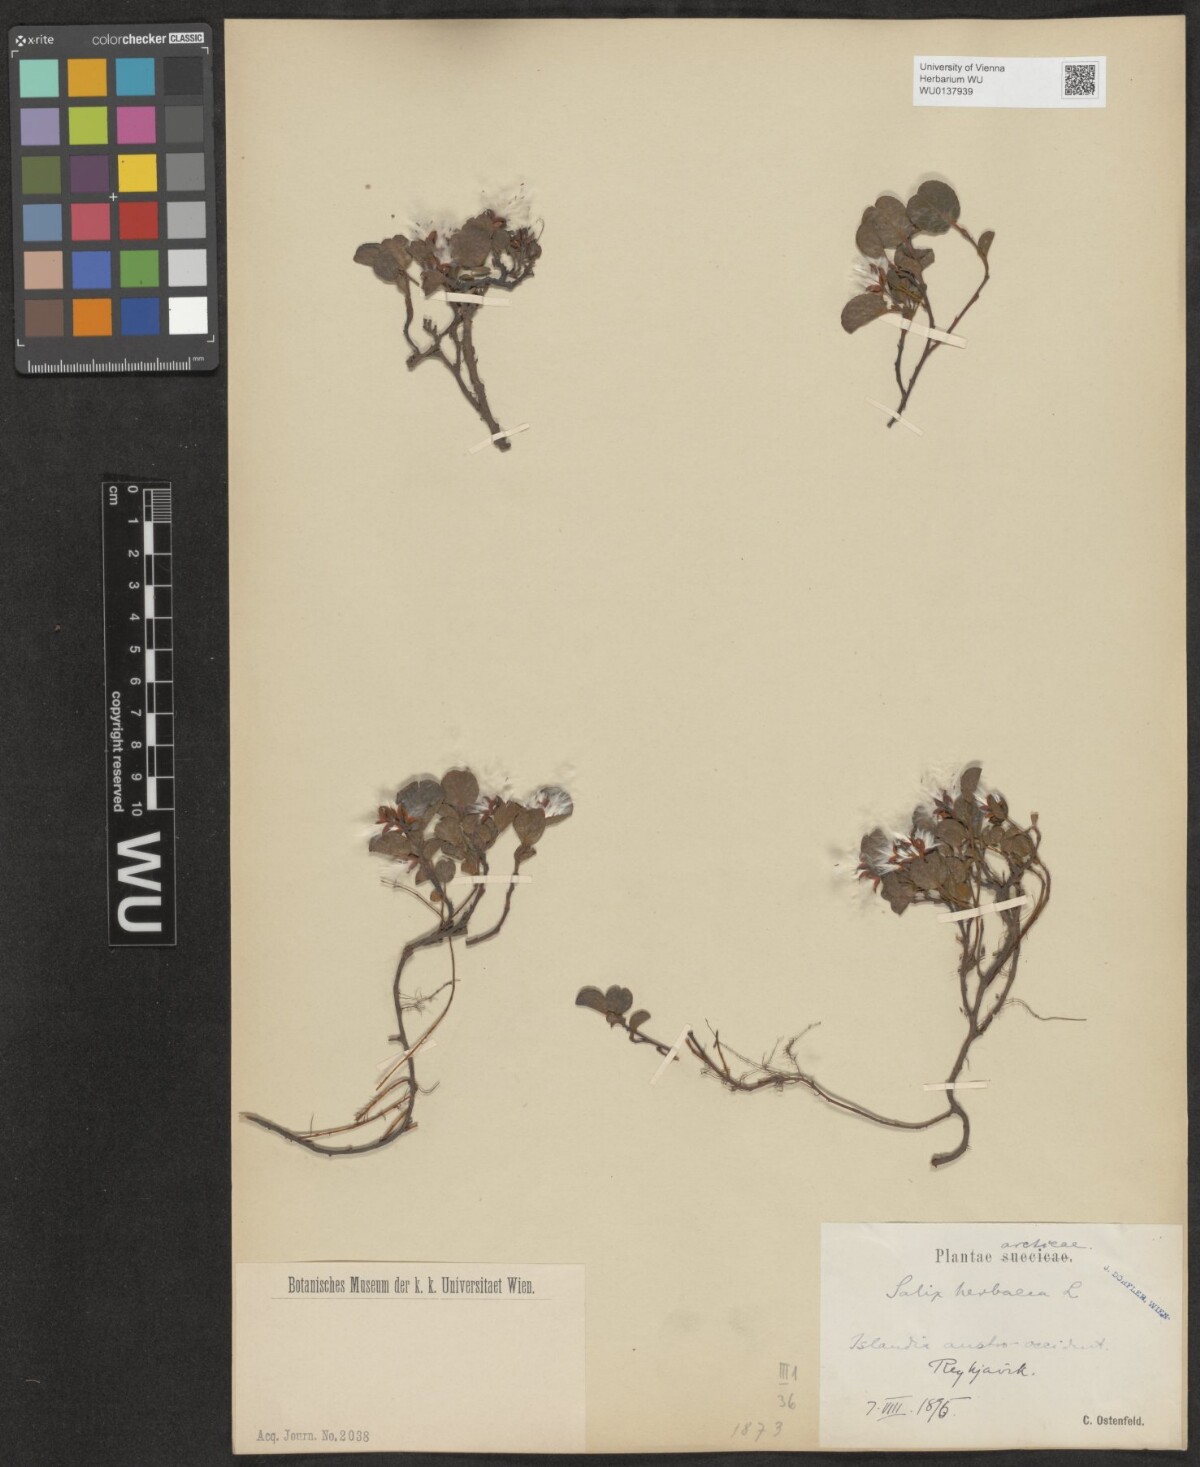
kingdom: Plantae
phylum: Tracheophyta
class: Magnoliopsida
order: Malpighiales
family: Salicaceae
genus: Salix
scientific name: Salix herbacea
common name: Dwarf willow
